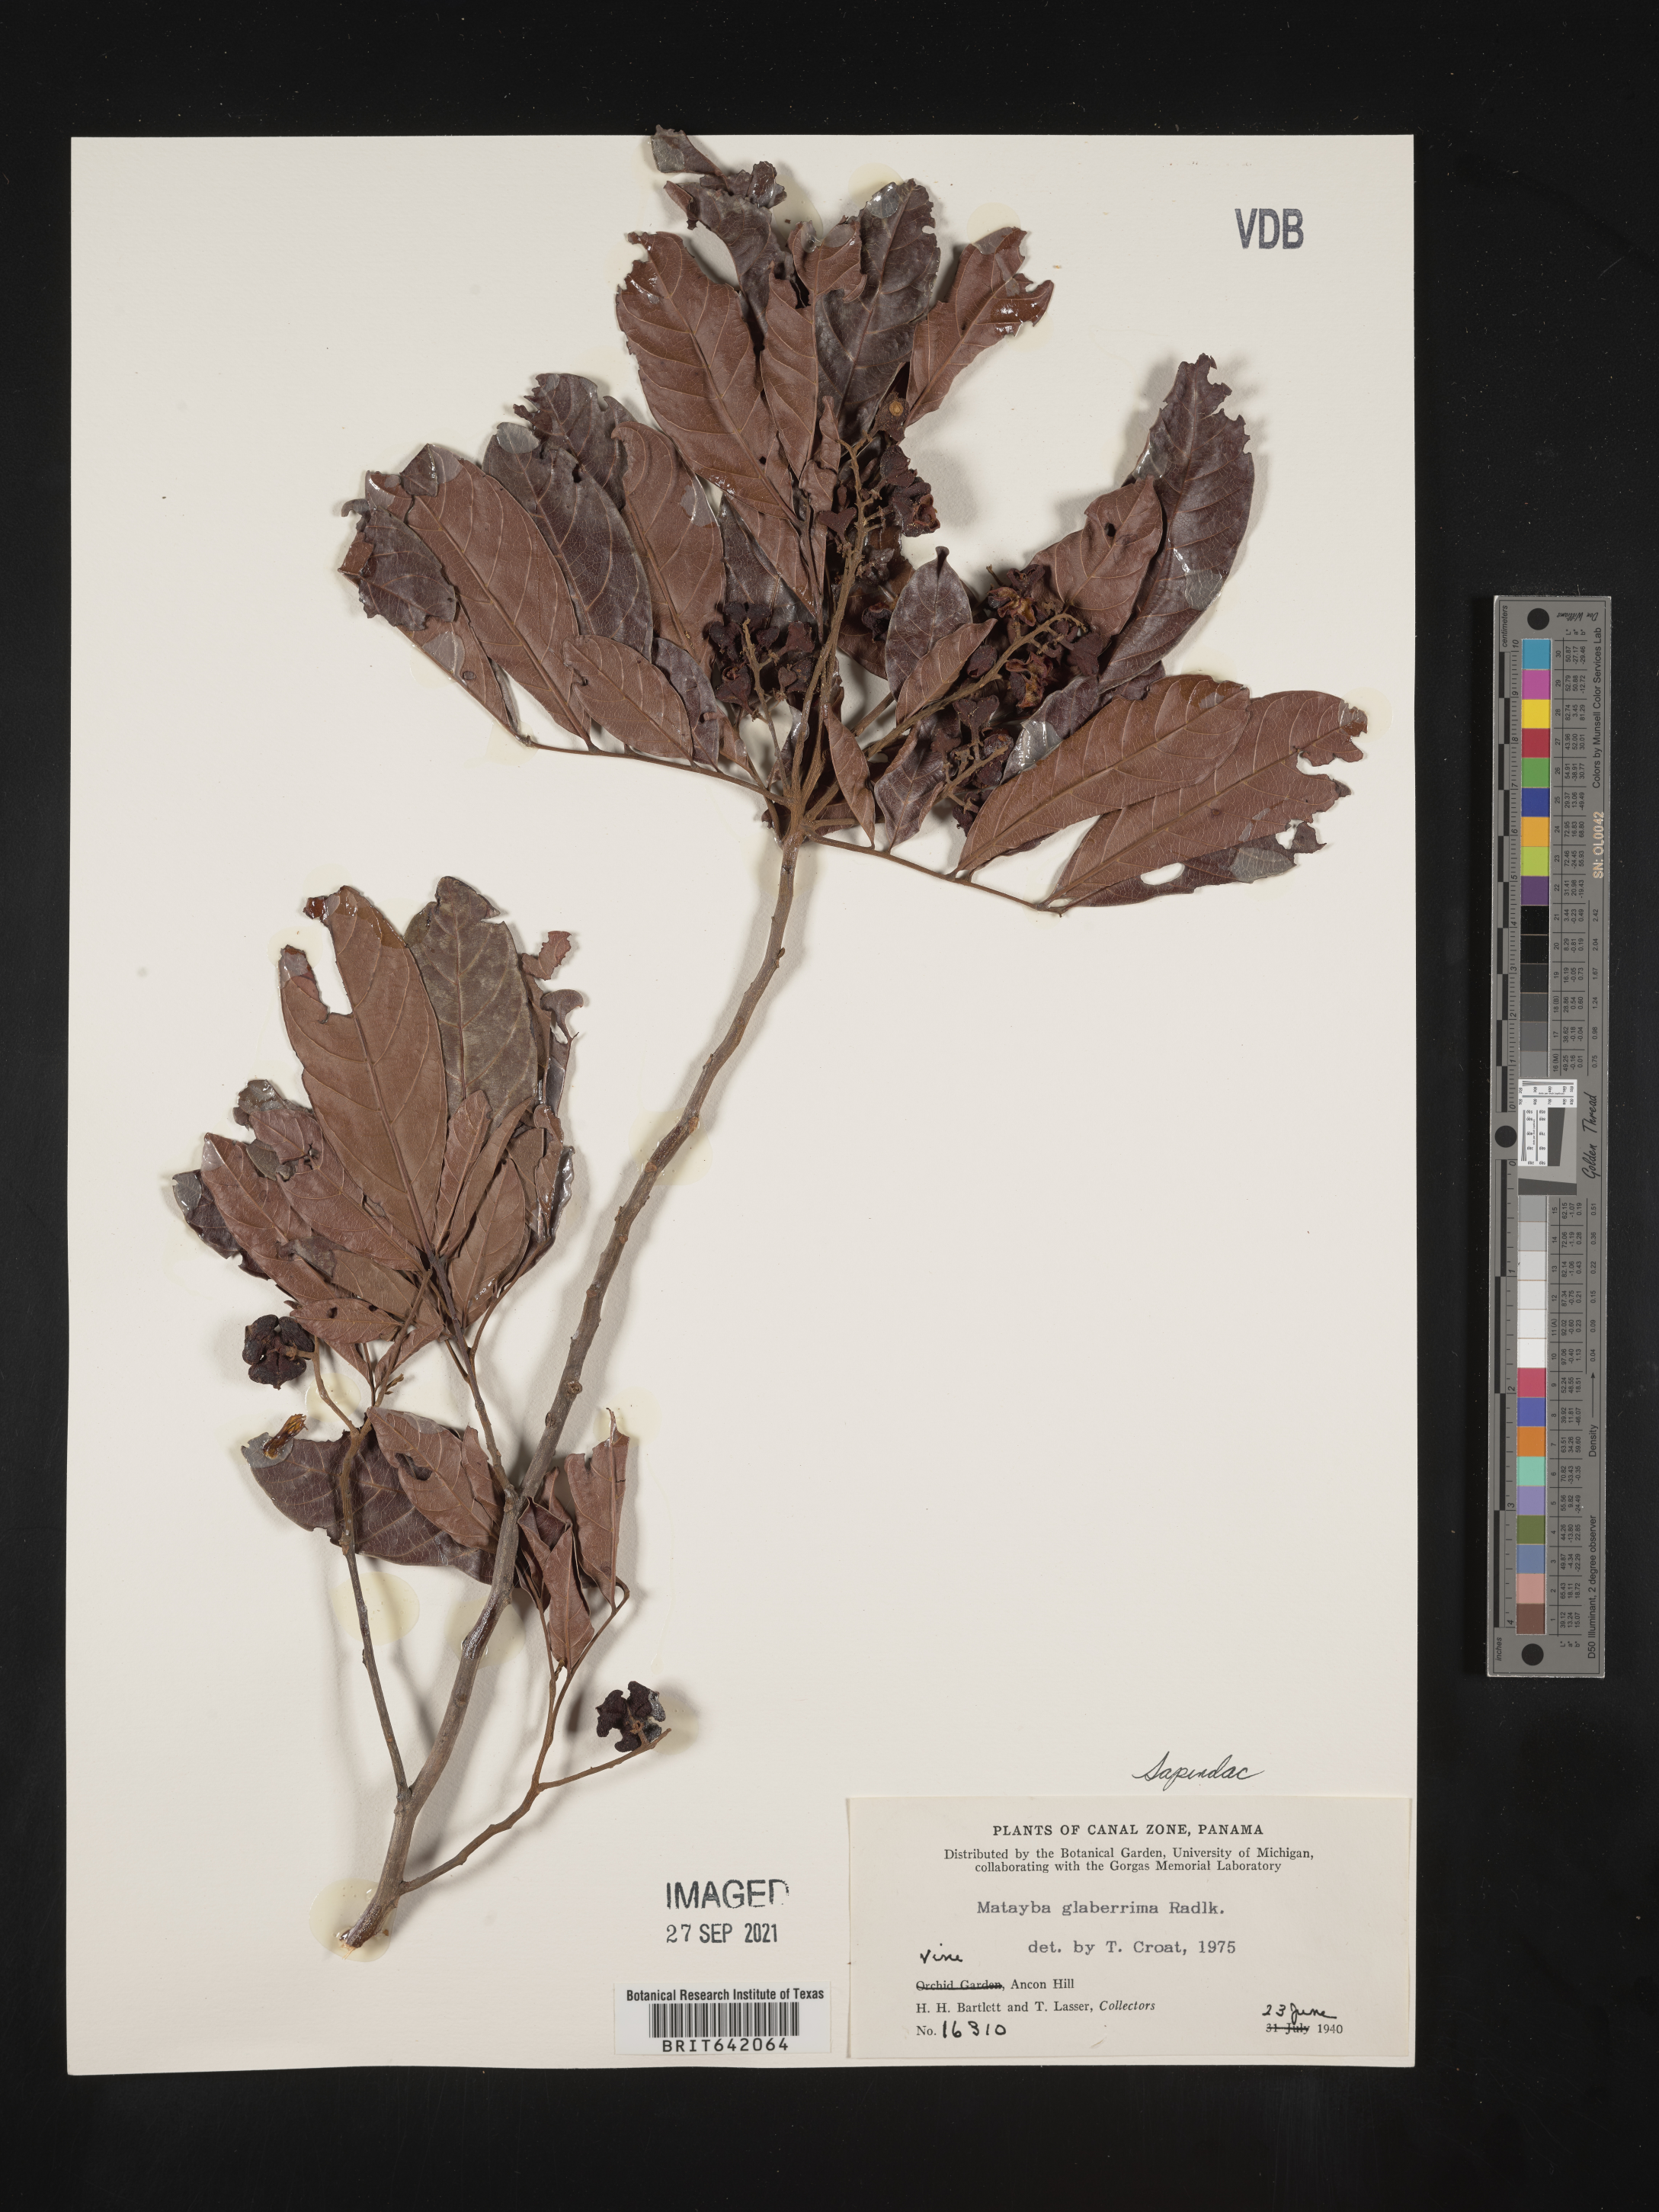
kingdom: Plantae
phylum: Tracheophyta
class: Magnoliopsida
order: Sapindales
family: Sapindaceae
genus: Matayba
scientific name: Matayba
